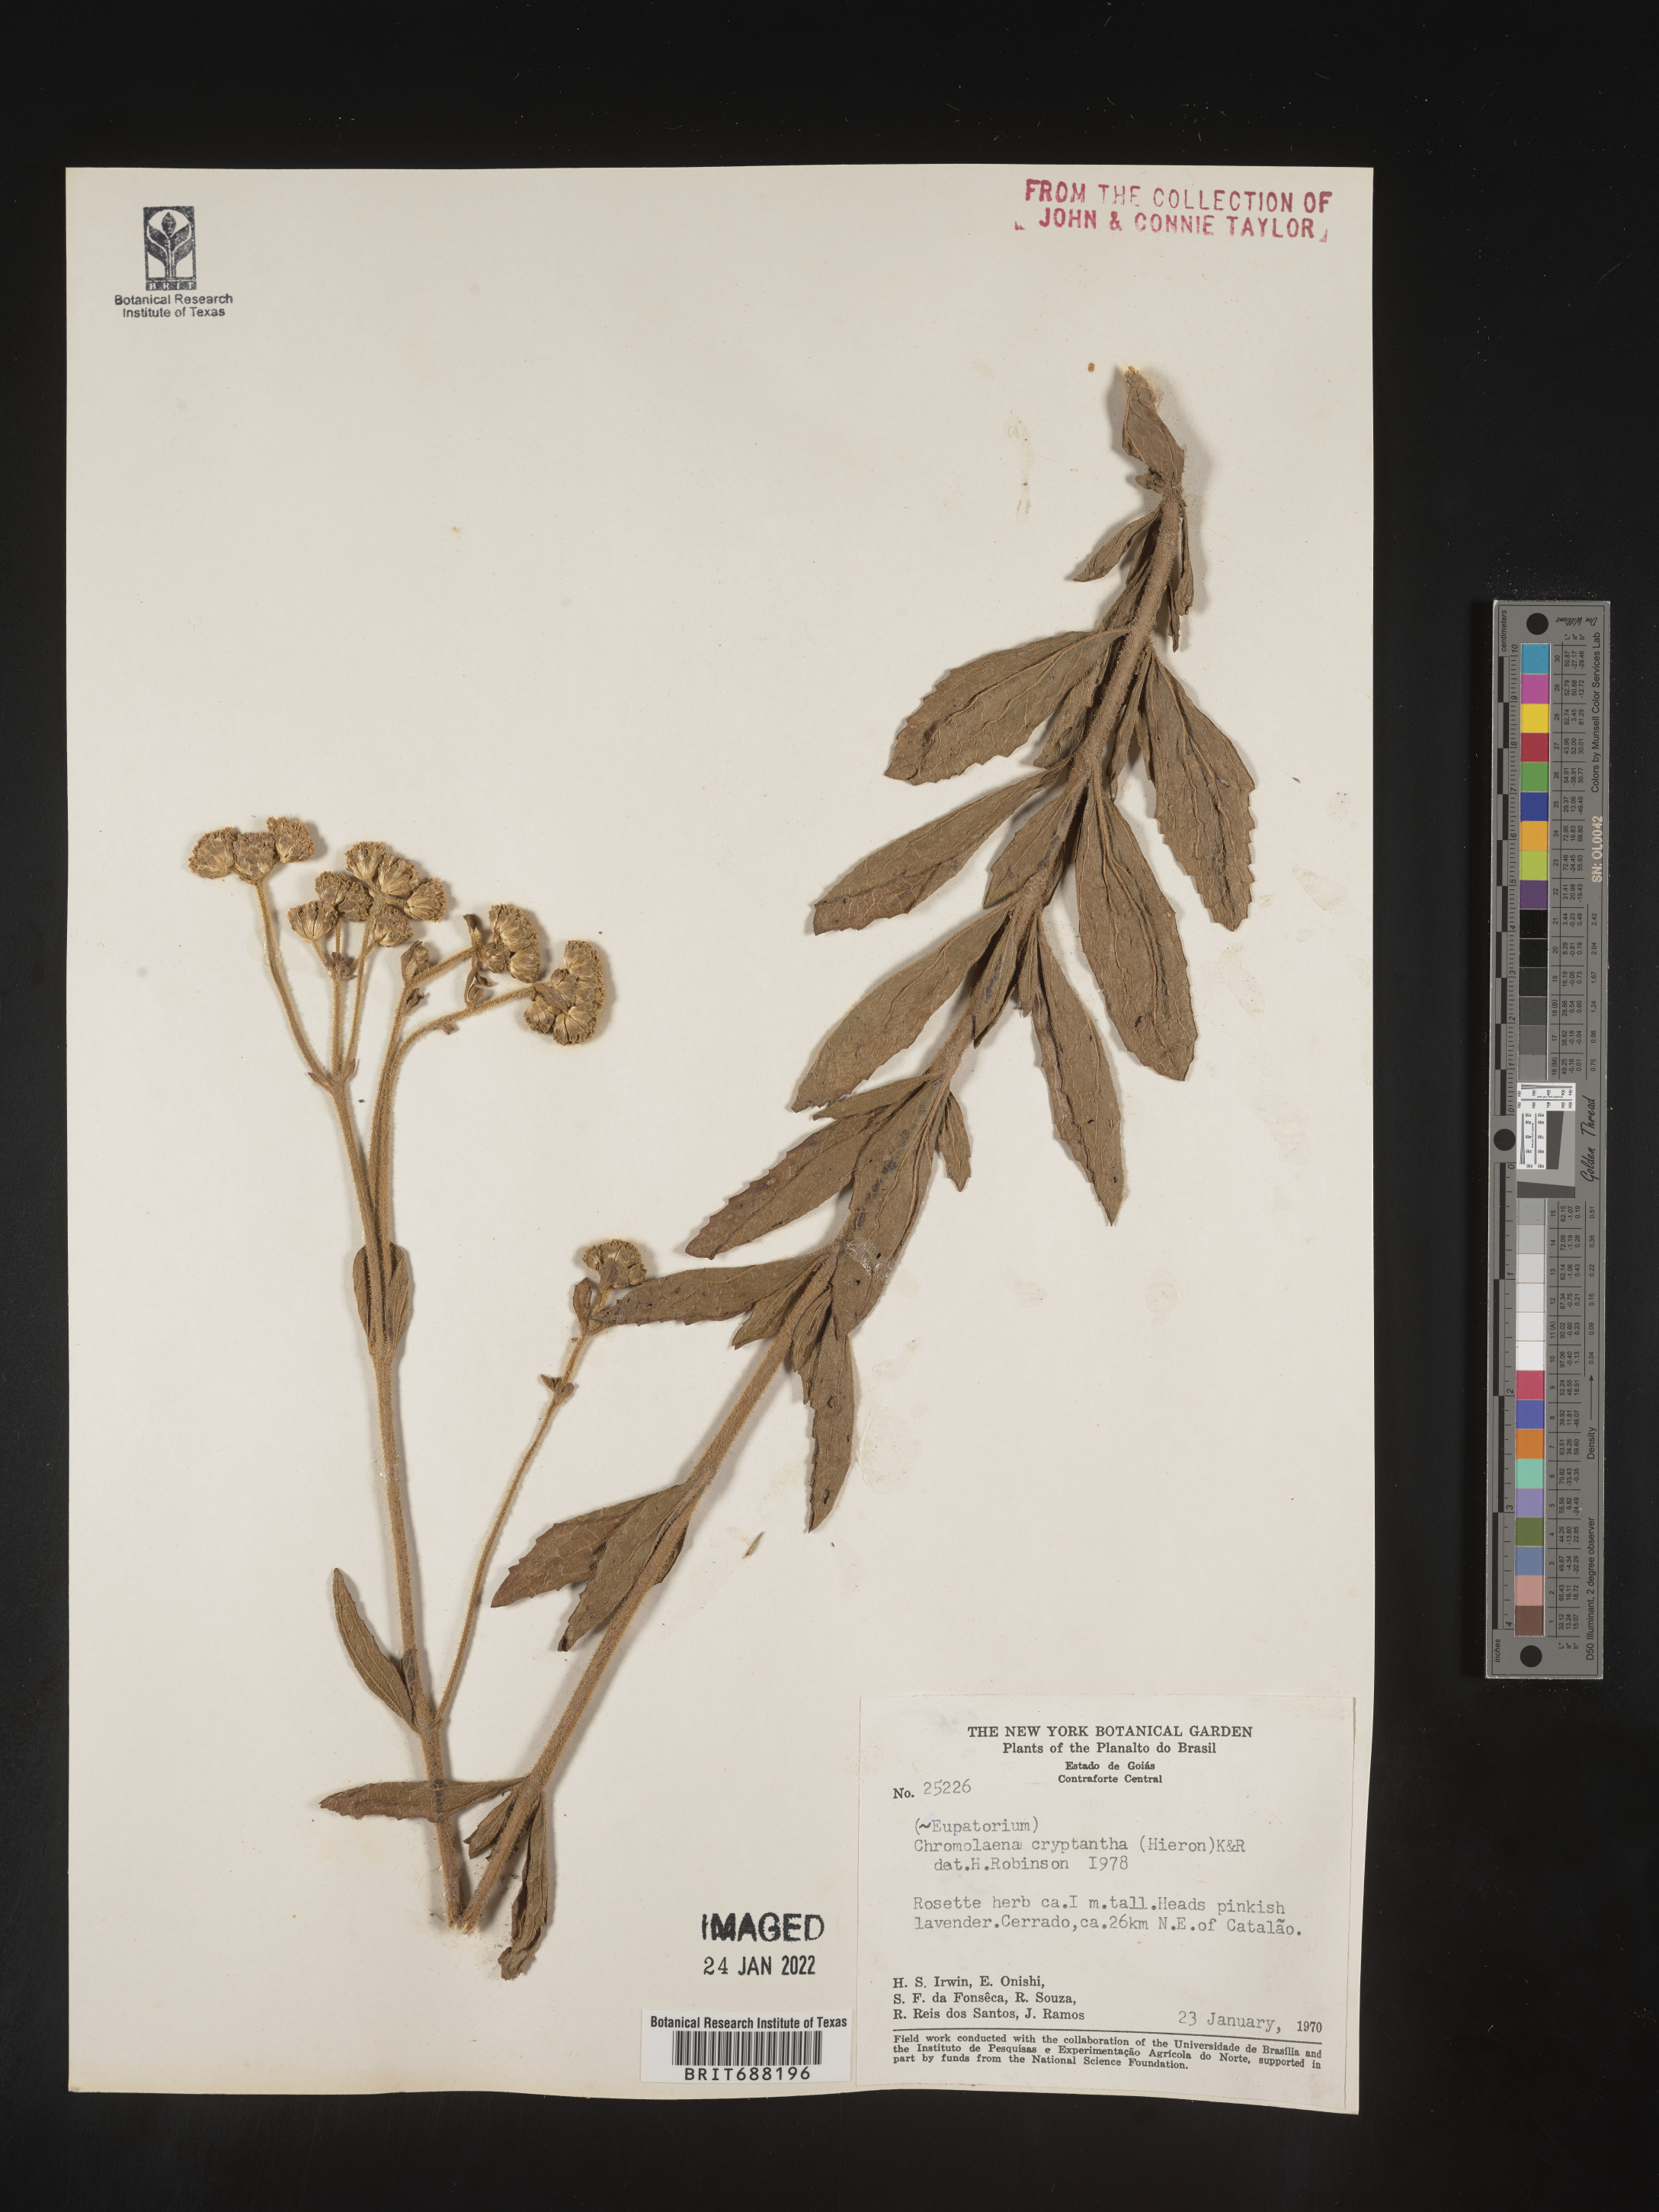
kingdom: Plantae
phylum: Tracheophyta
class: Magnoliopsida
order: Asterales
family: Asteraceae
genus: Chromolaena
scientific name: Chromolaena
